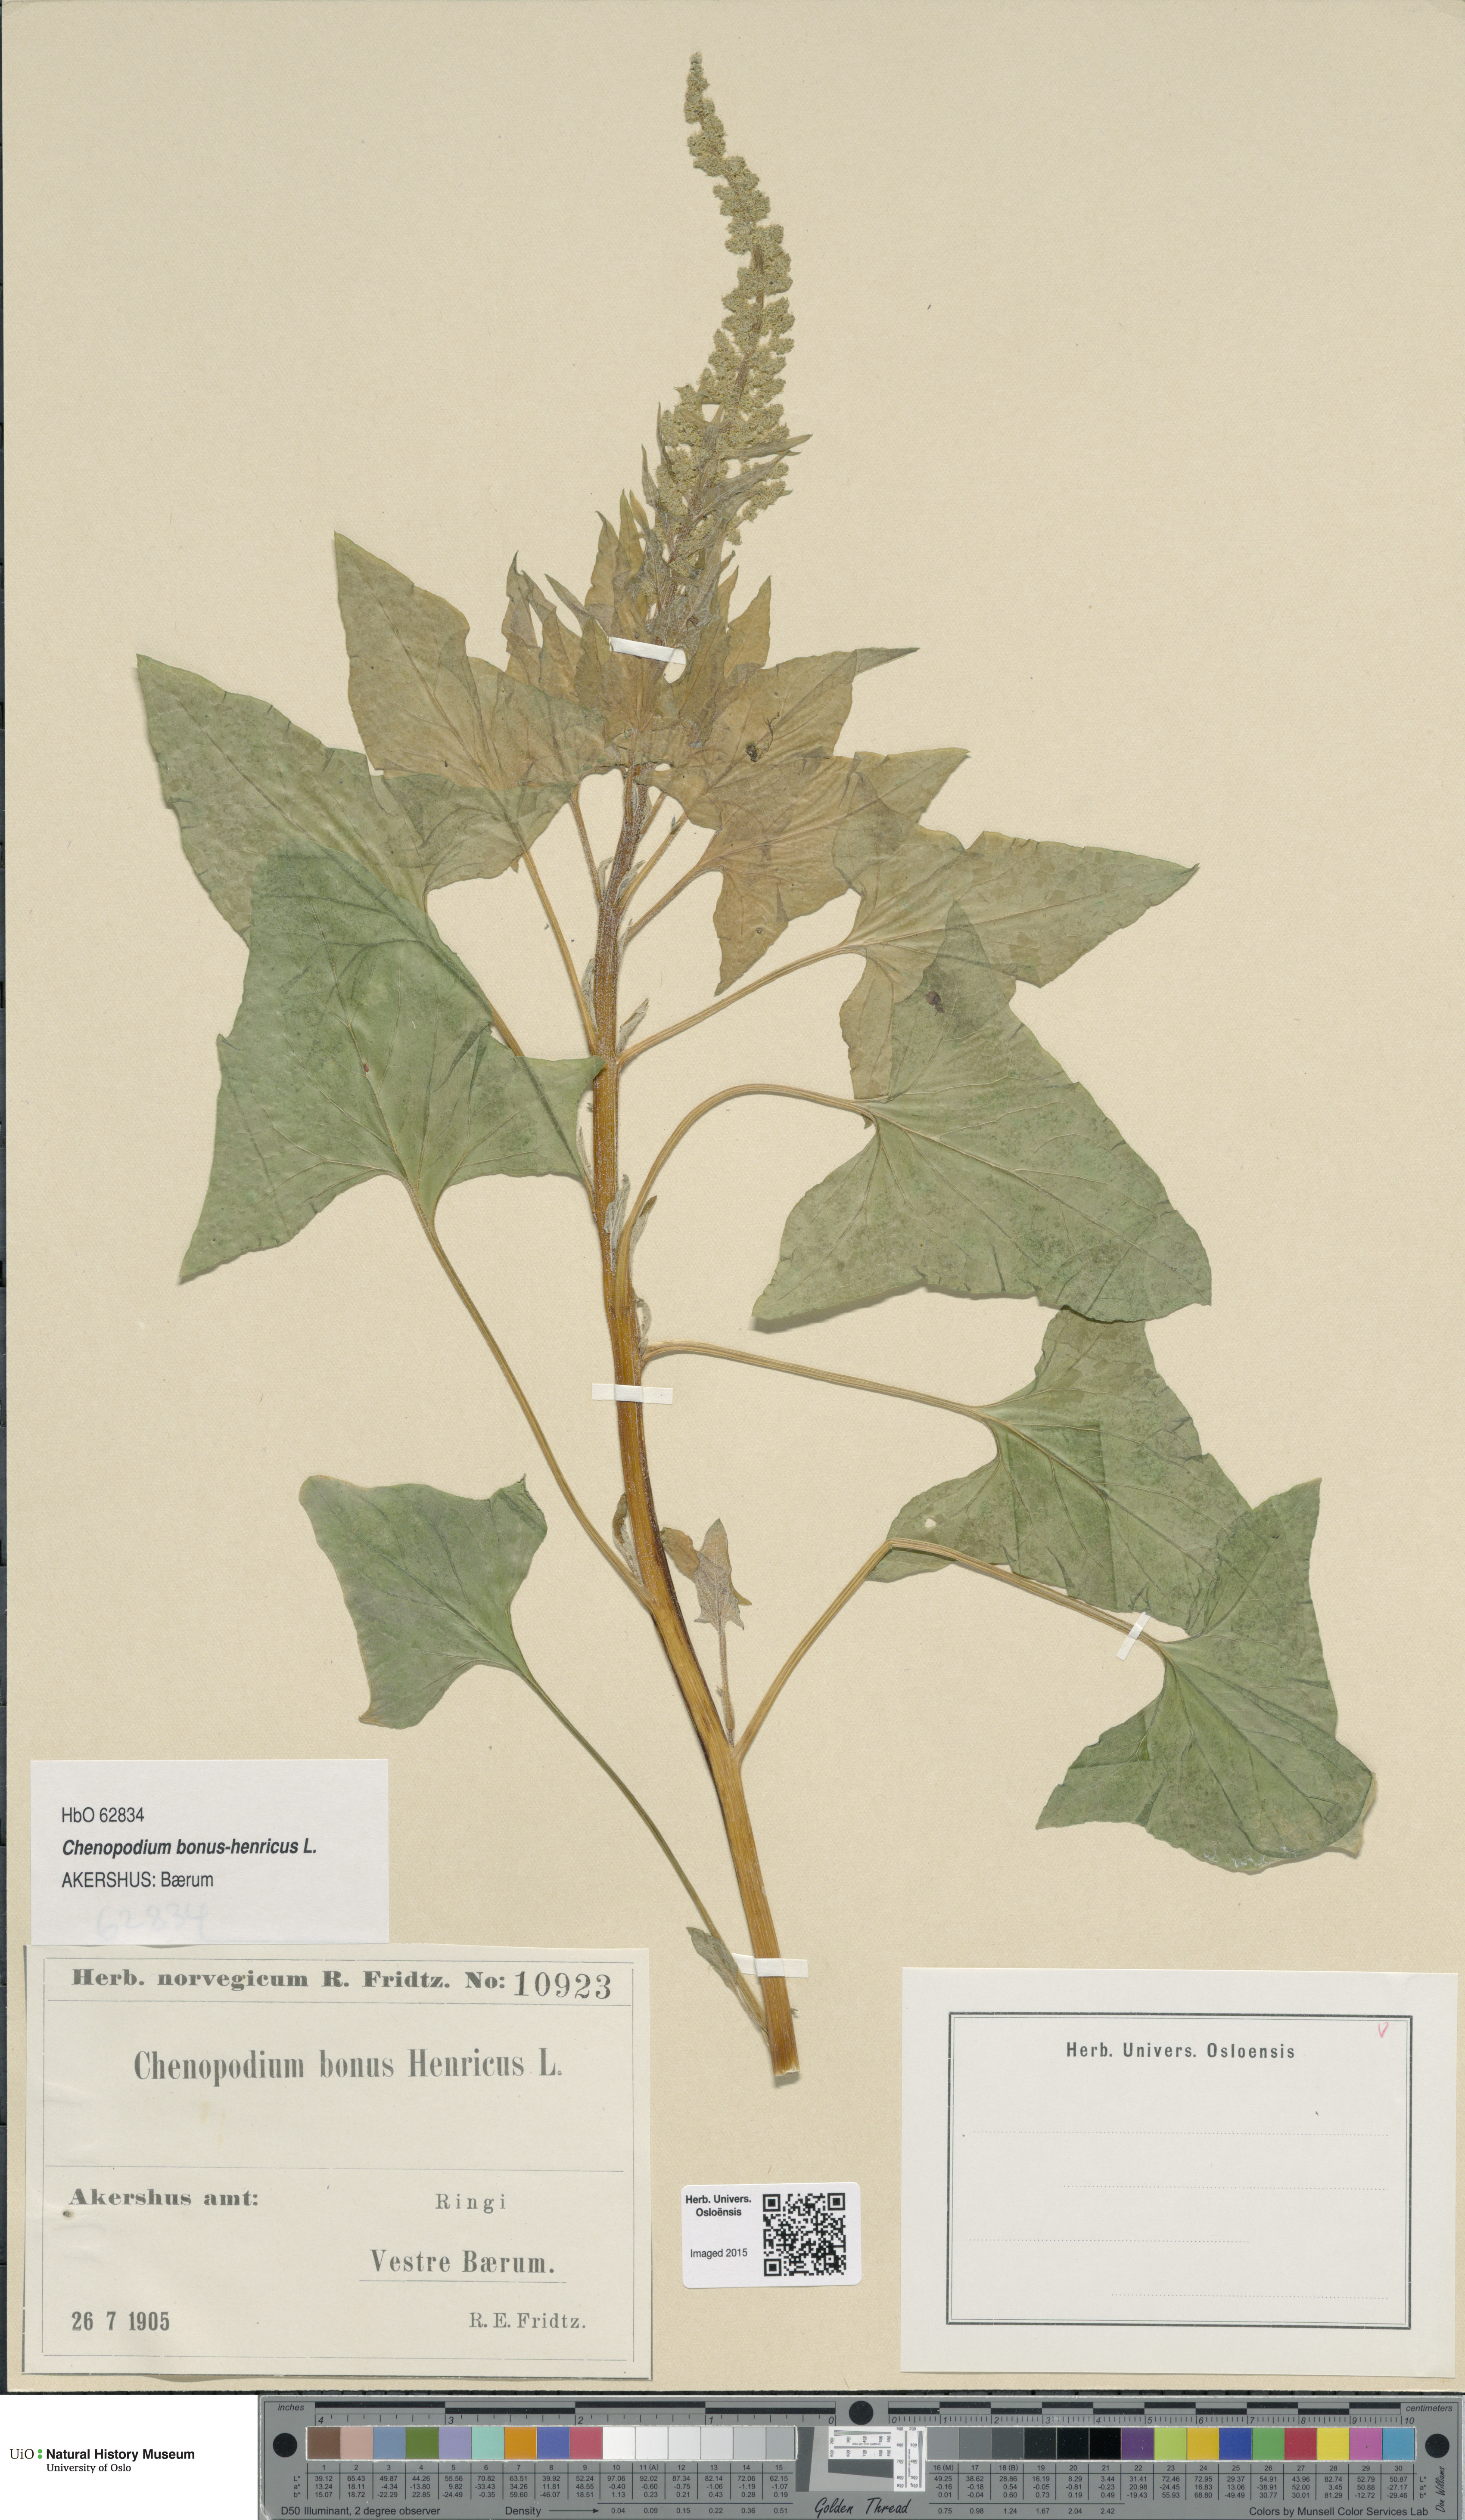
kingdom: Plantae
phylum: Tracheophyta
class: Magnoliopsida
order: Caryophyllales
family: Amaranthaceae
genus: Blitum
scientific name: Blitum bonus-henricus
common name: Good king henry
